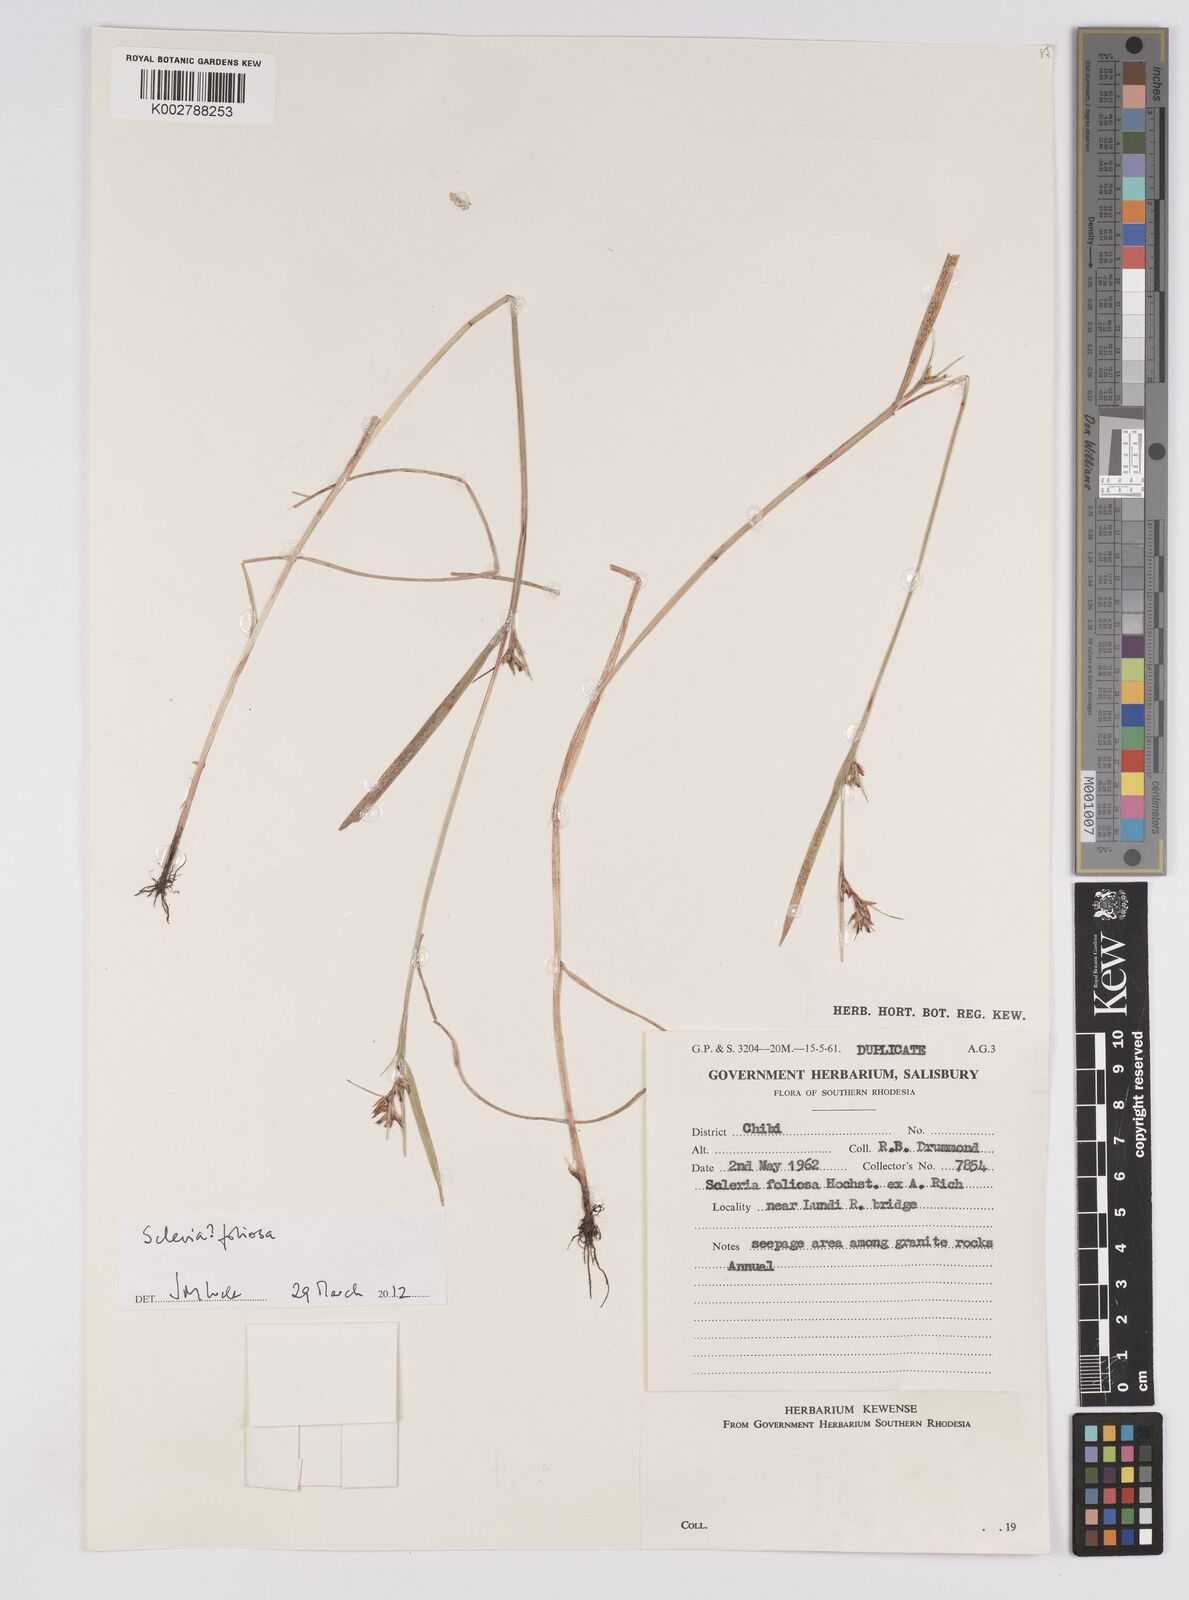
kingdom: Plantae
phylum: Tracheophyta
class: Liliopsida
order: Poales
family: Cyperaceae
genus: Scleria
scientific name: Scleria foliosa
